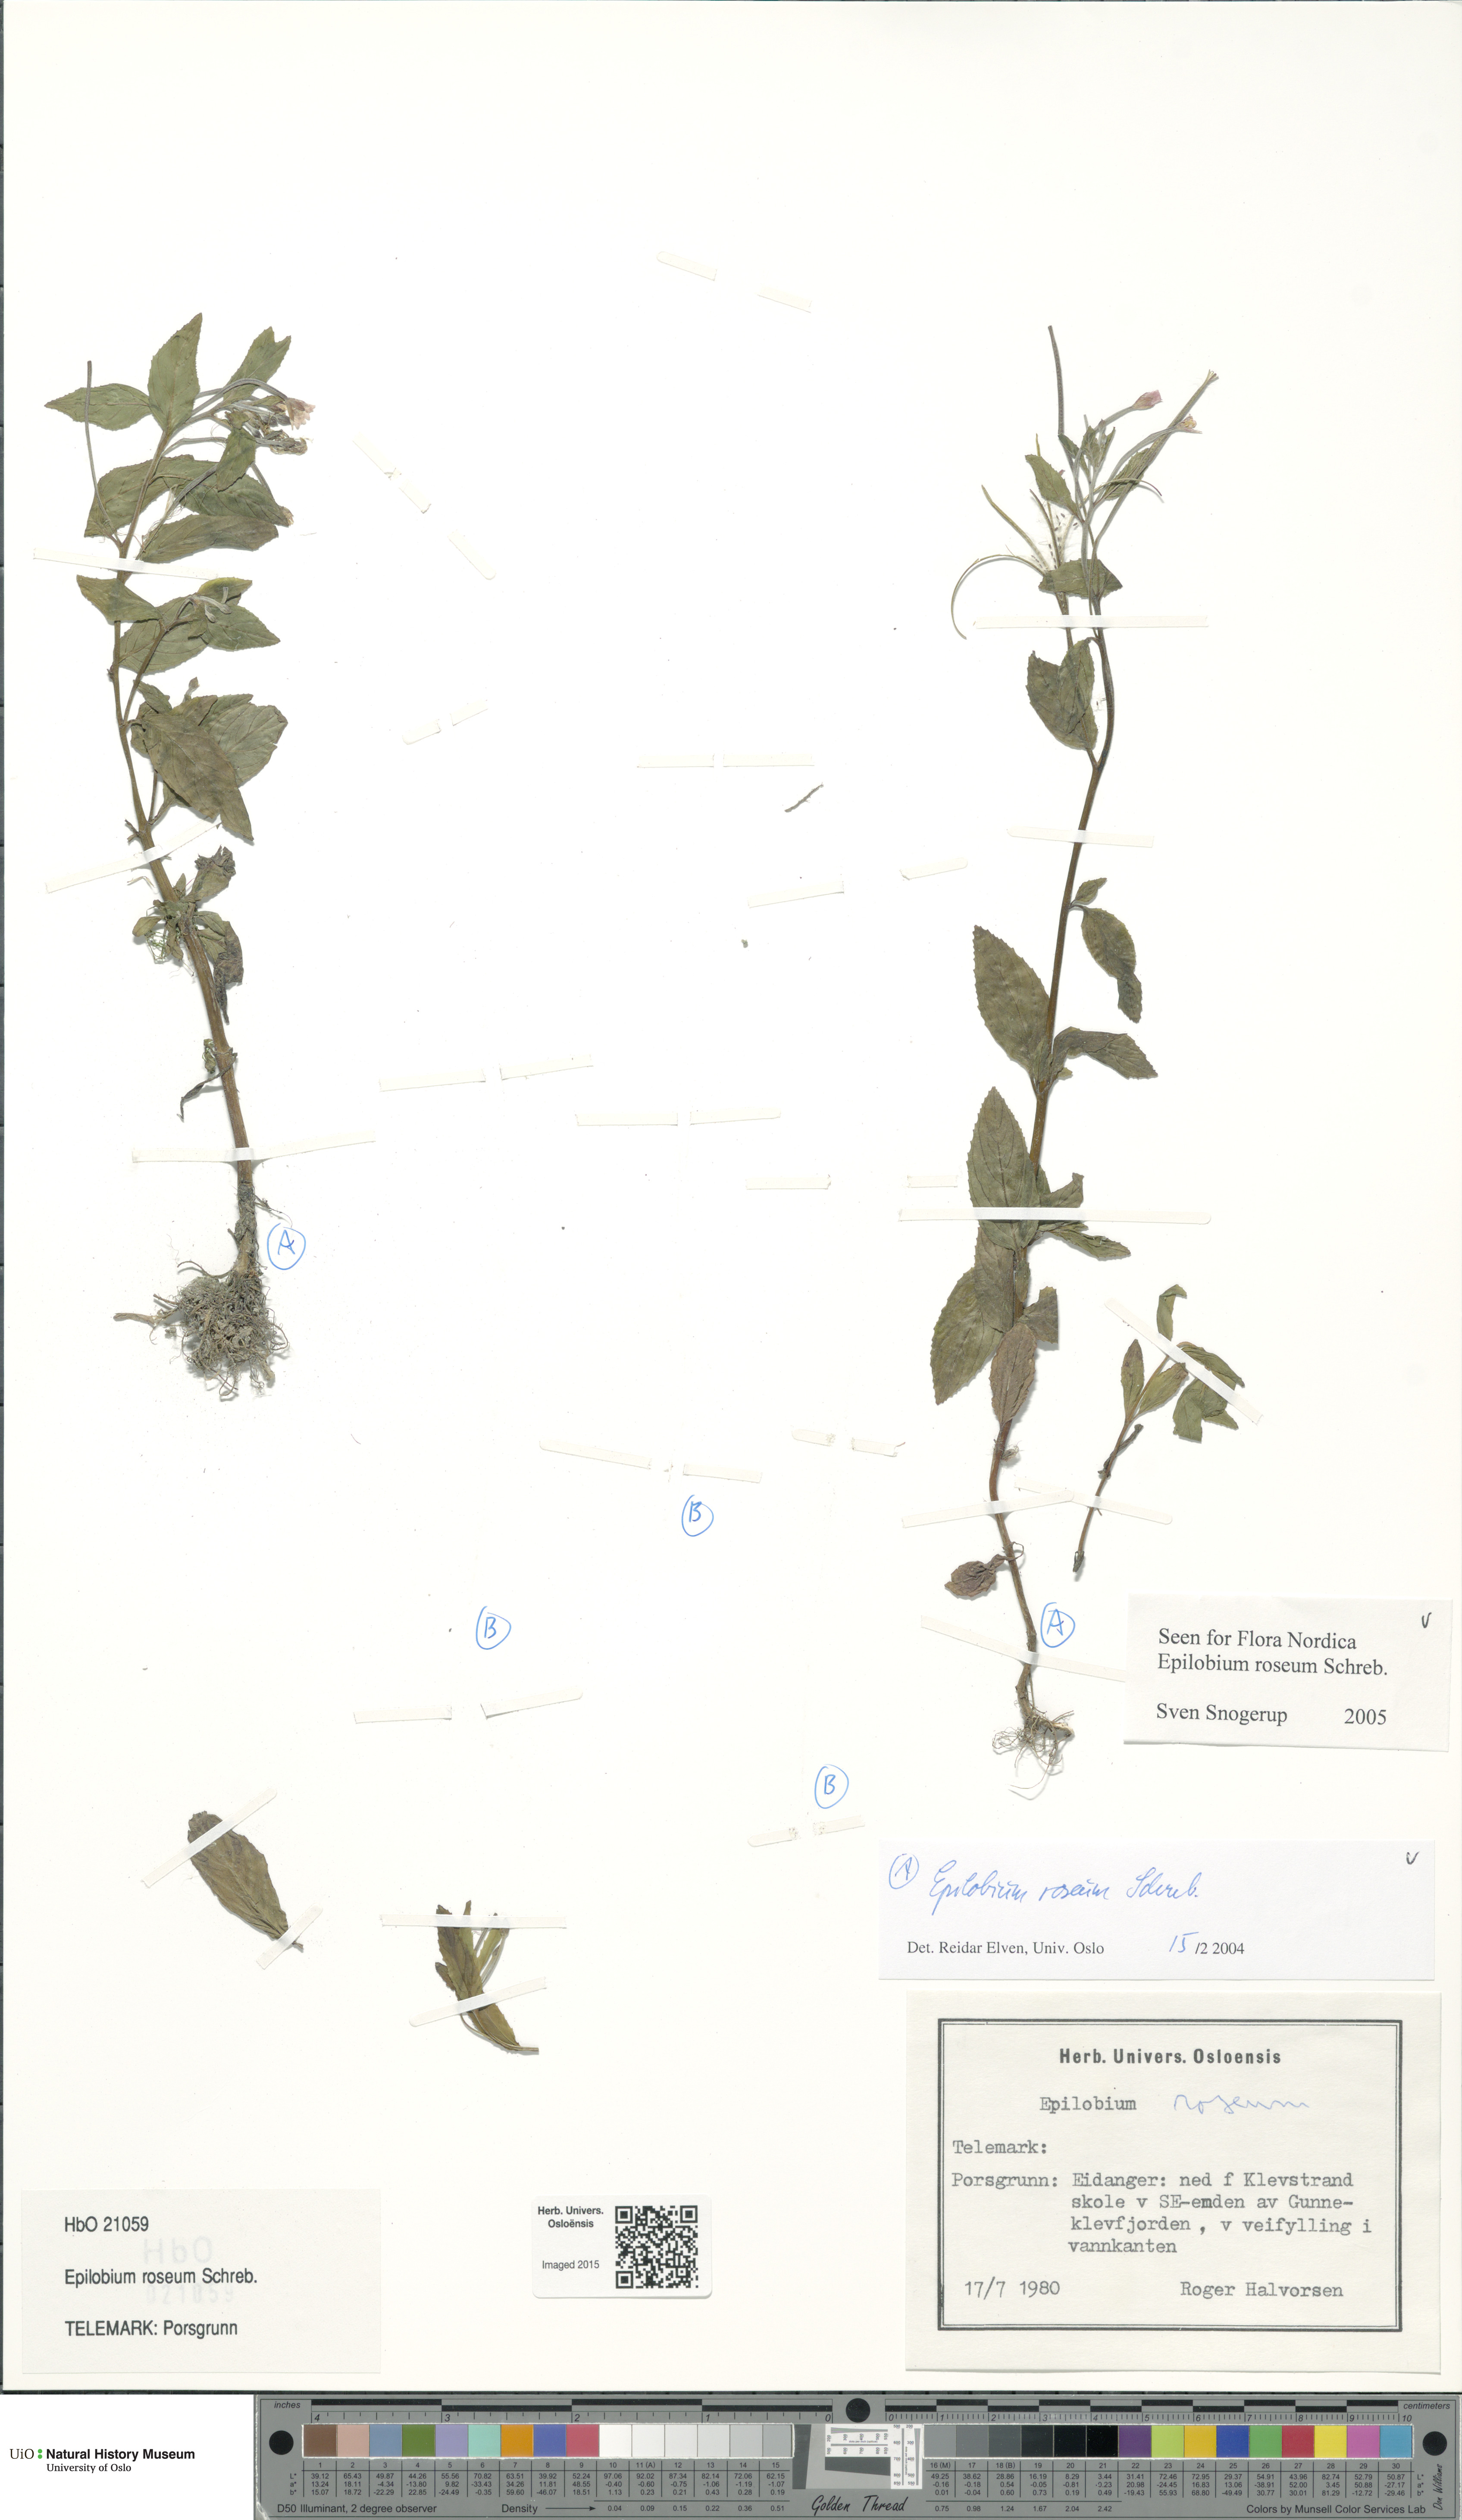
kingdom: Plantae
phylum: Tracheophyta
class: Magnoliopsida
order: Myrtales
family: Onagraceae
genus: Epilobium
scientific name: Epilobium roseum
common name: Pale willowherb
